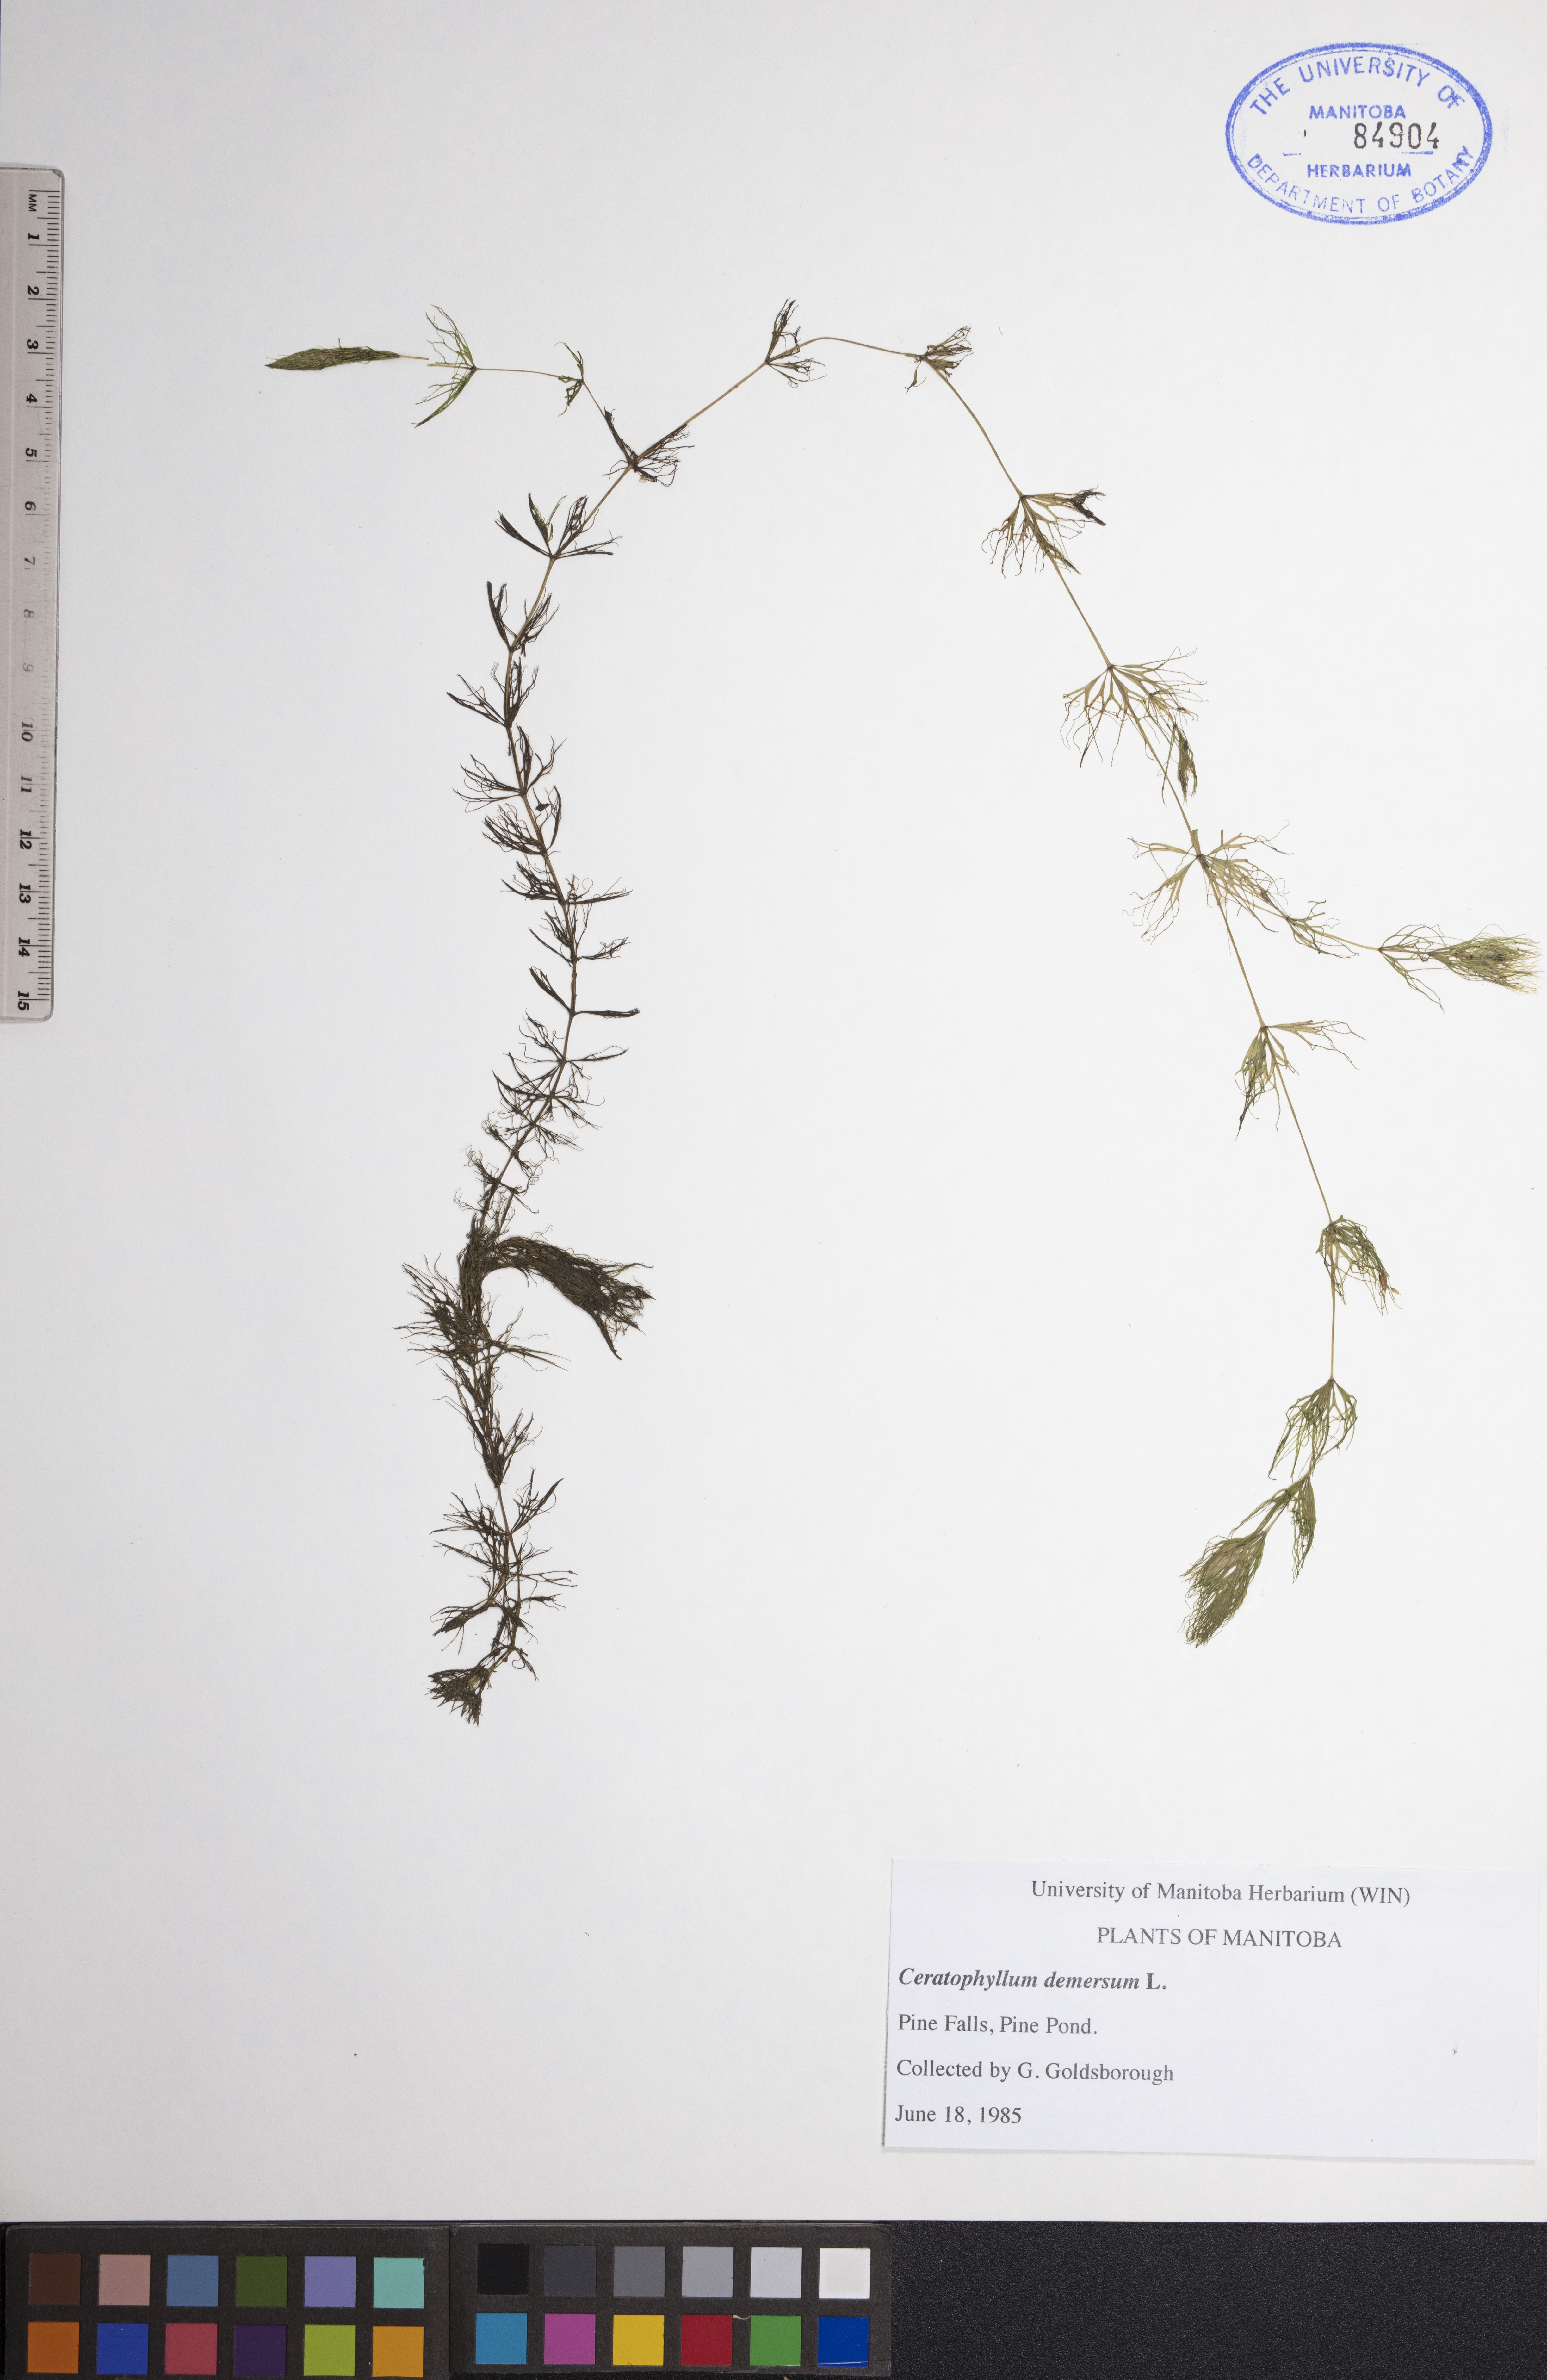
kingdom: Plantae
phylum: Tracheophyta
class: Magnoliopsida
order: Ceratophyllales
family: Ceratophyllaceae
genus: Ceratophyllum
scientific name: Ceratophyllum demersum
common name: Rigid hornwort
